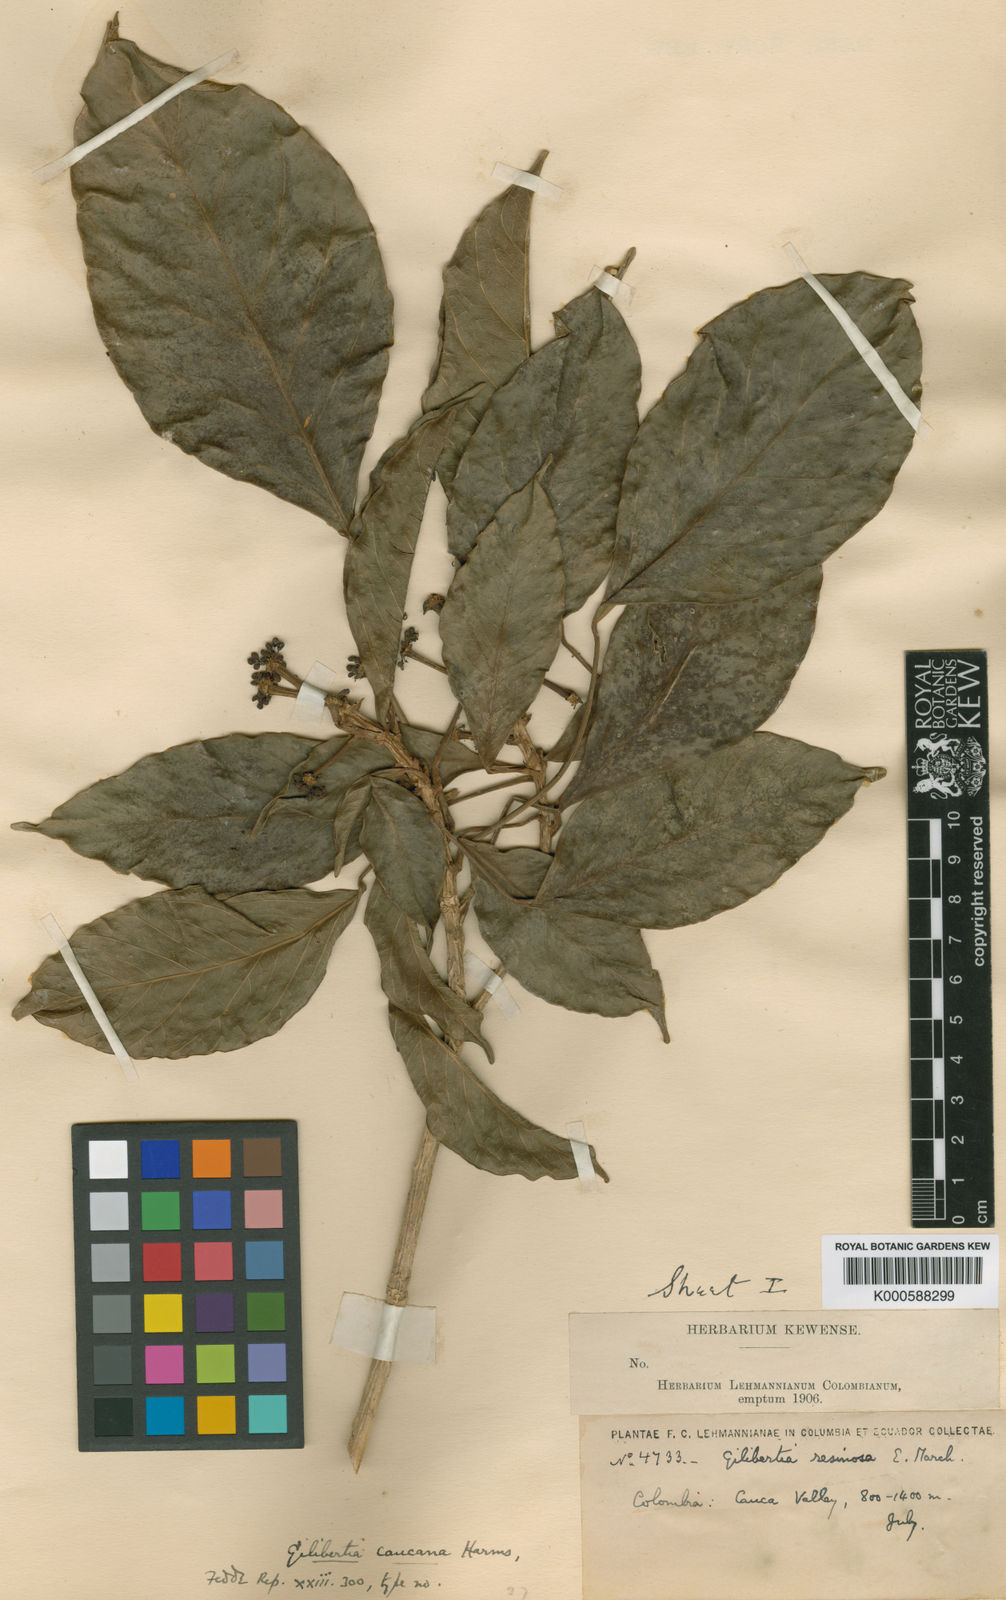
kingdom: Plantae
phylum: Tracheophyta
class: Magnoliopsida
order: Apiales
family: Araliaceae
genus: Dendropanax
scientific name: Dendropanax caucanus
